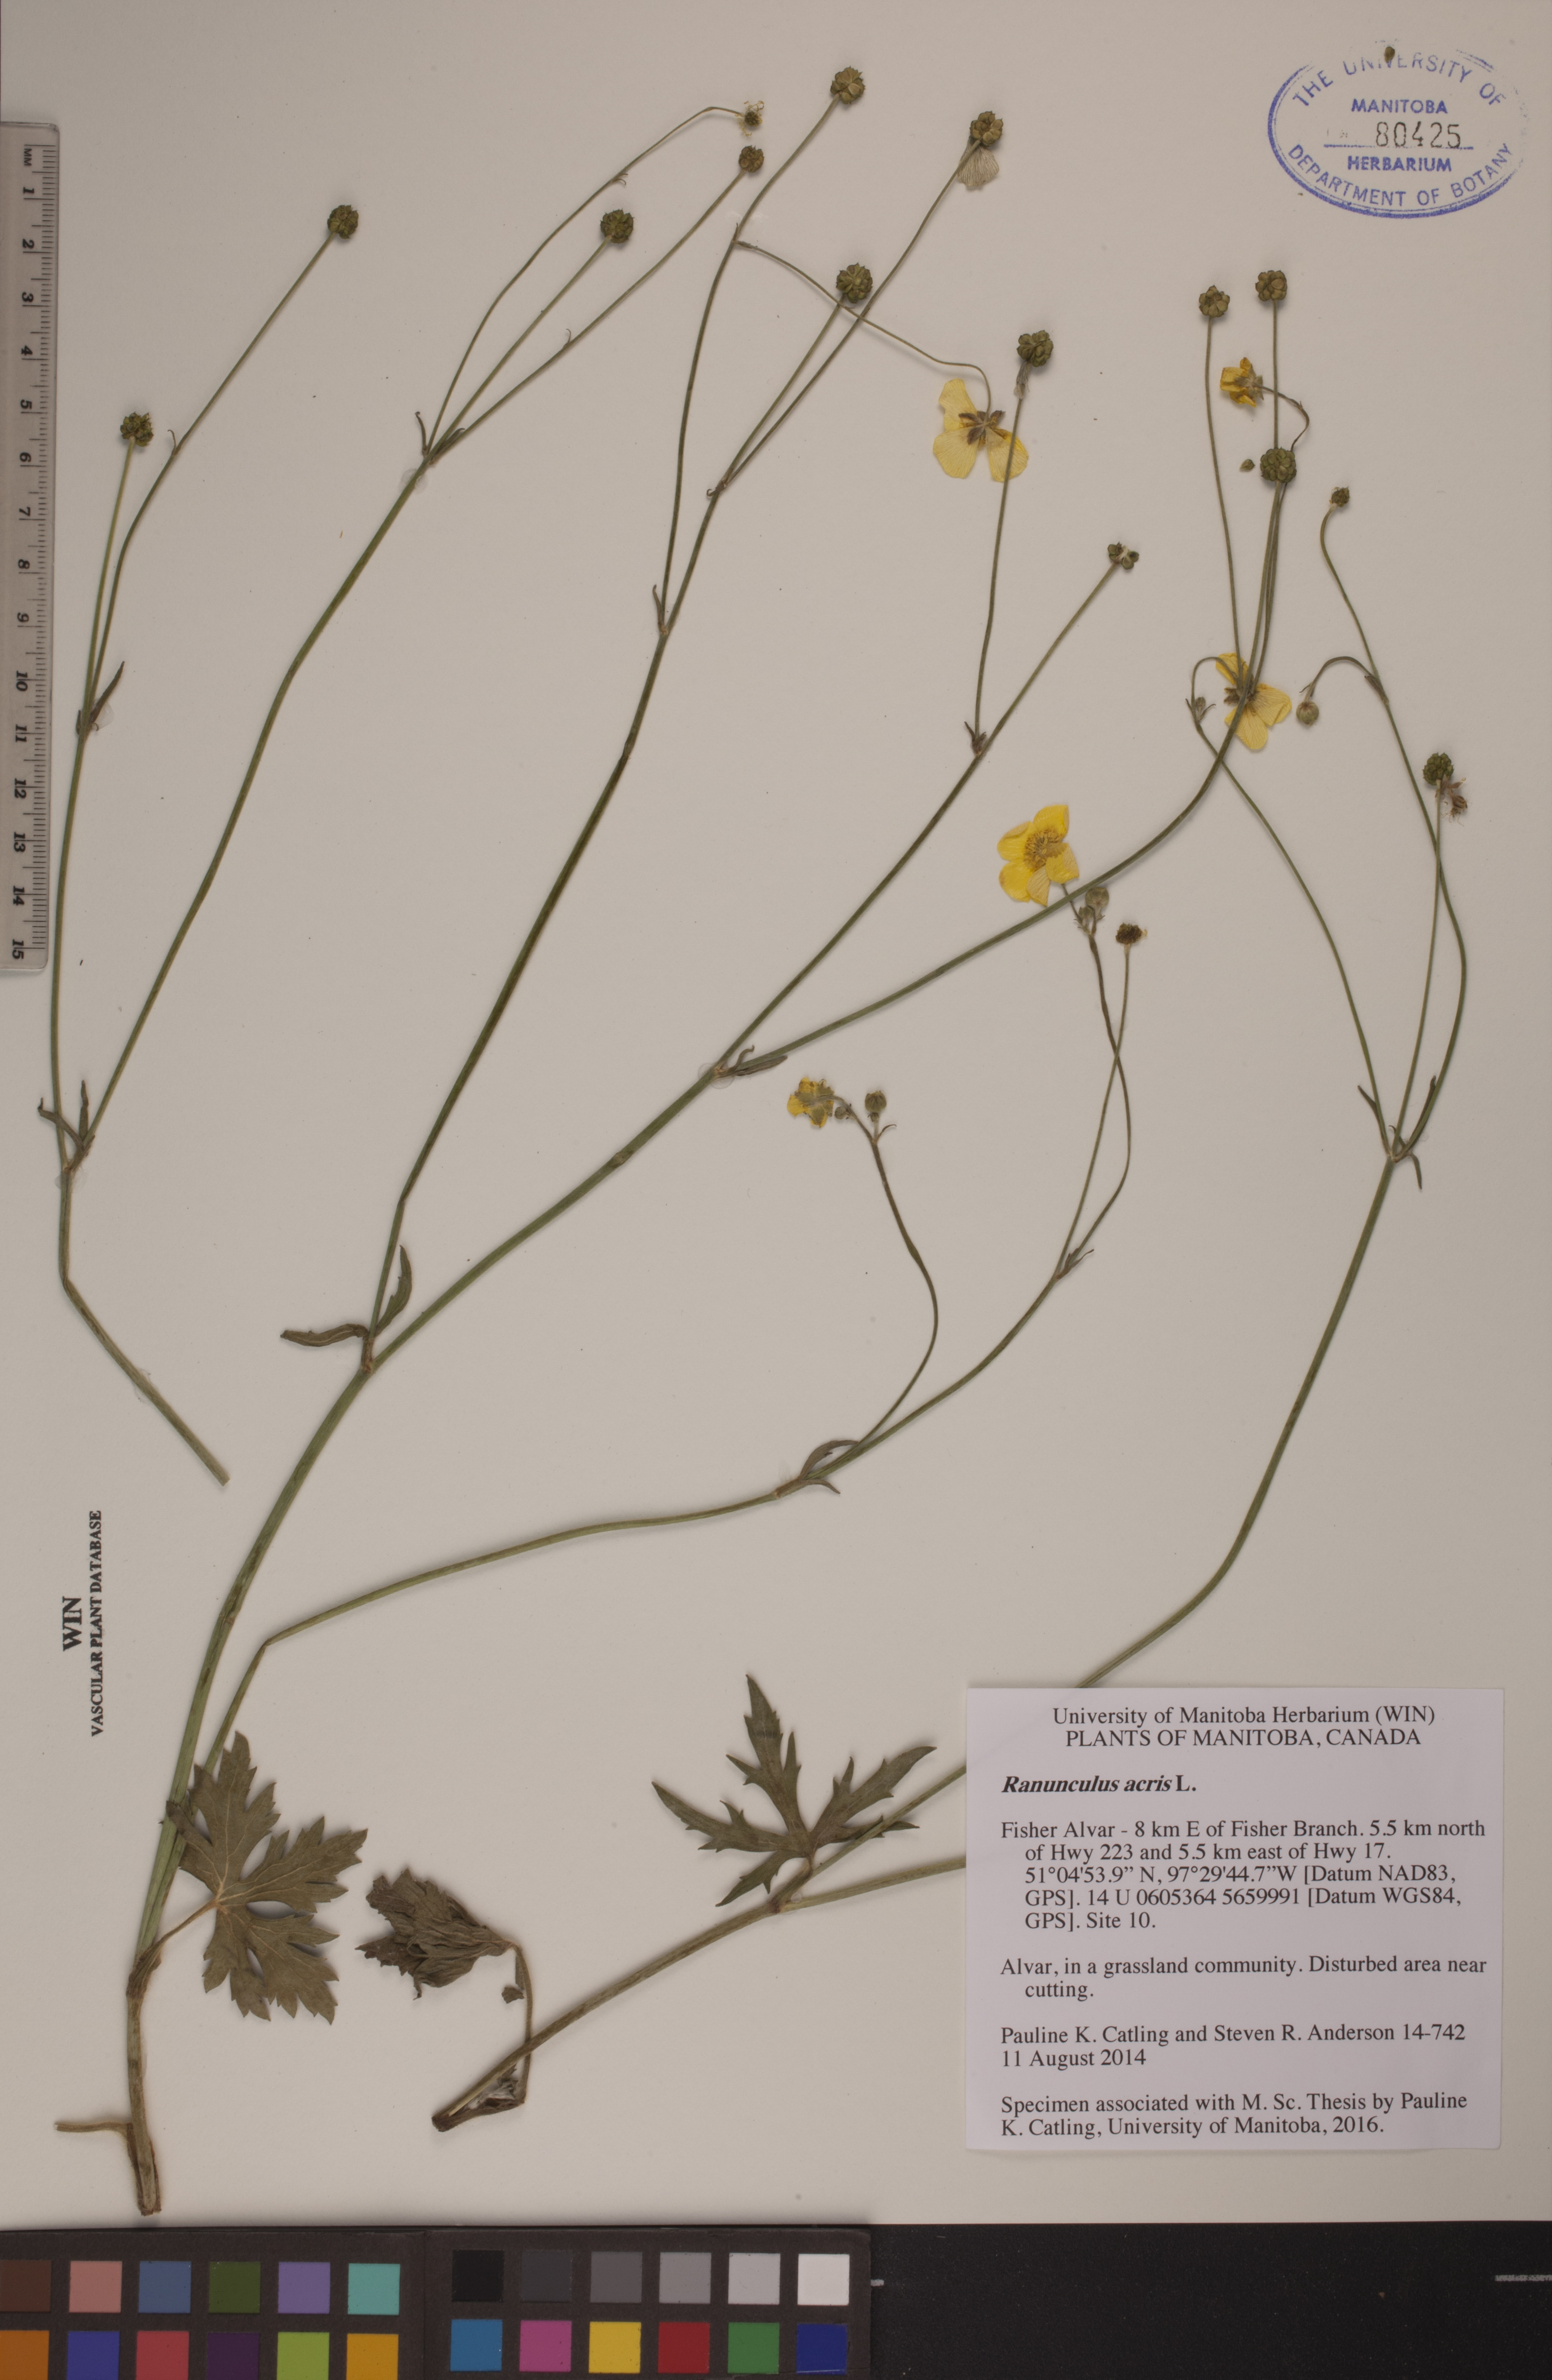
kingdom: Plantae
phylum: Tracheophyta
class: Magnoliopsida
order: Ranunculales
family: Ranunculaceae
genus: Ranunculus
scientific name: Ranunculus acris
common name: Meadow buttercup
